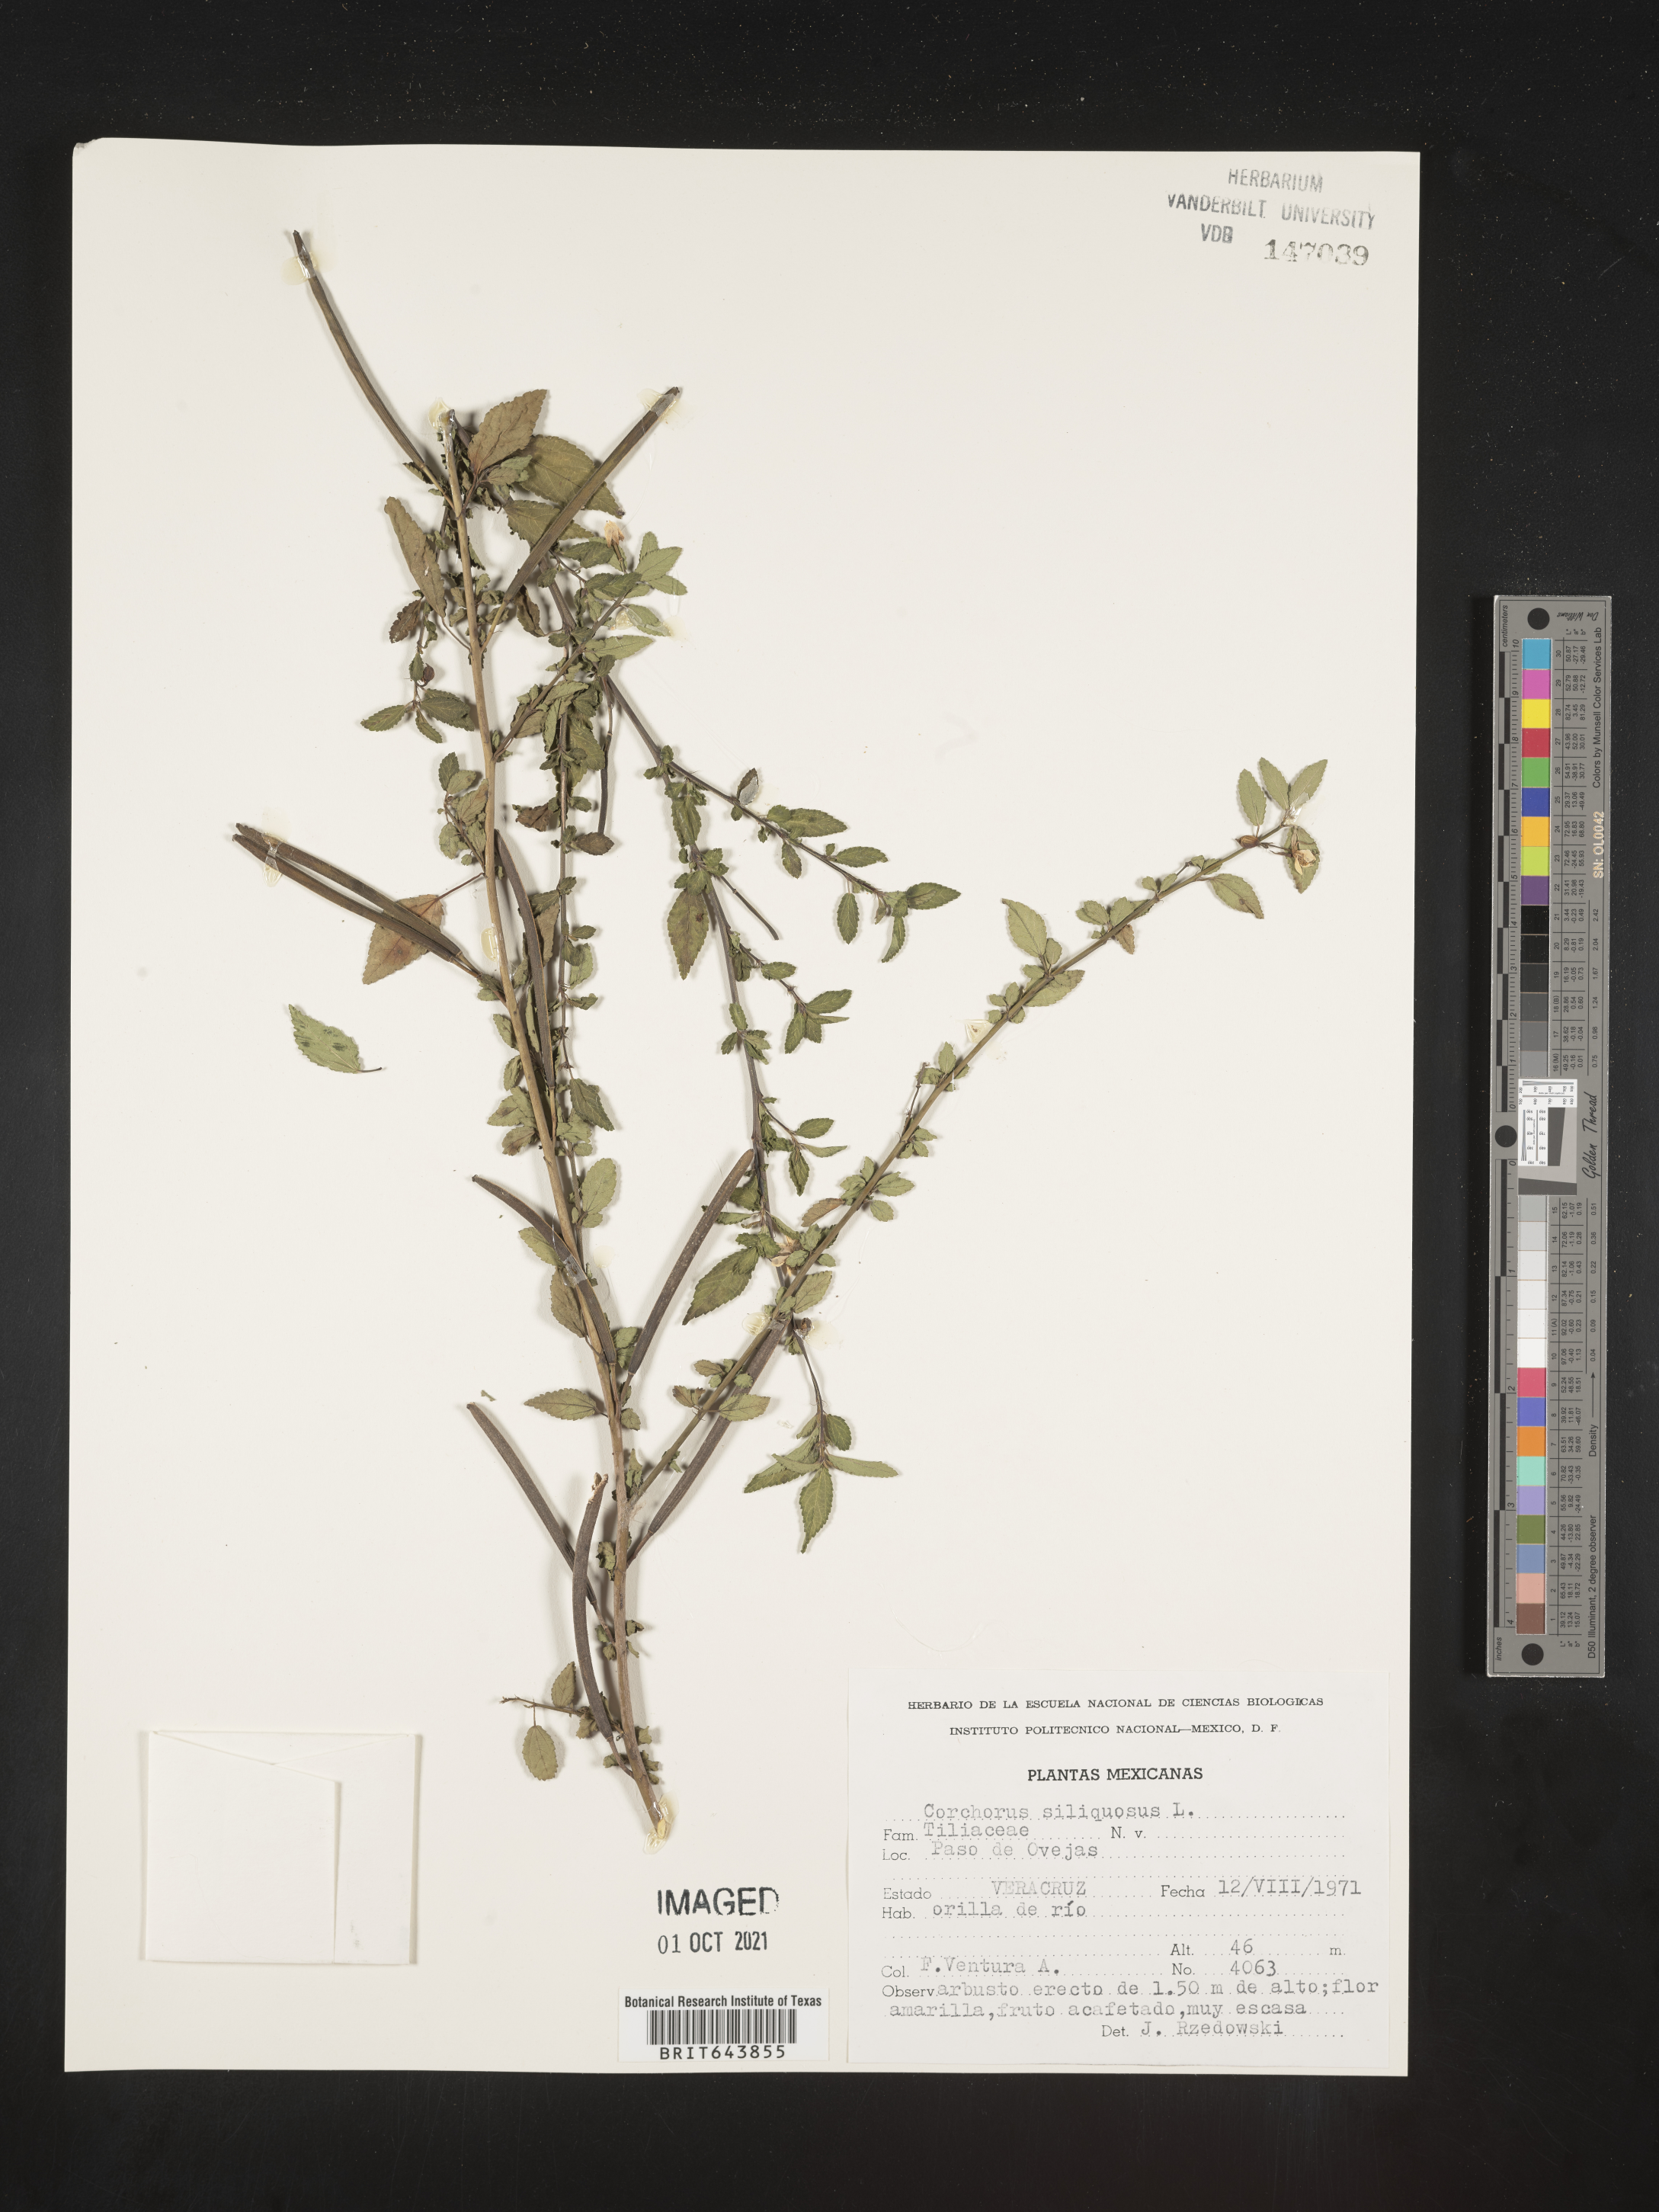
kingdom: Plantae
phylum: Tracheophyta
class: Magnoliopsida
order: Malvales
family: Malvaceae
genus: Corchorus
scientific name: Corchorus
